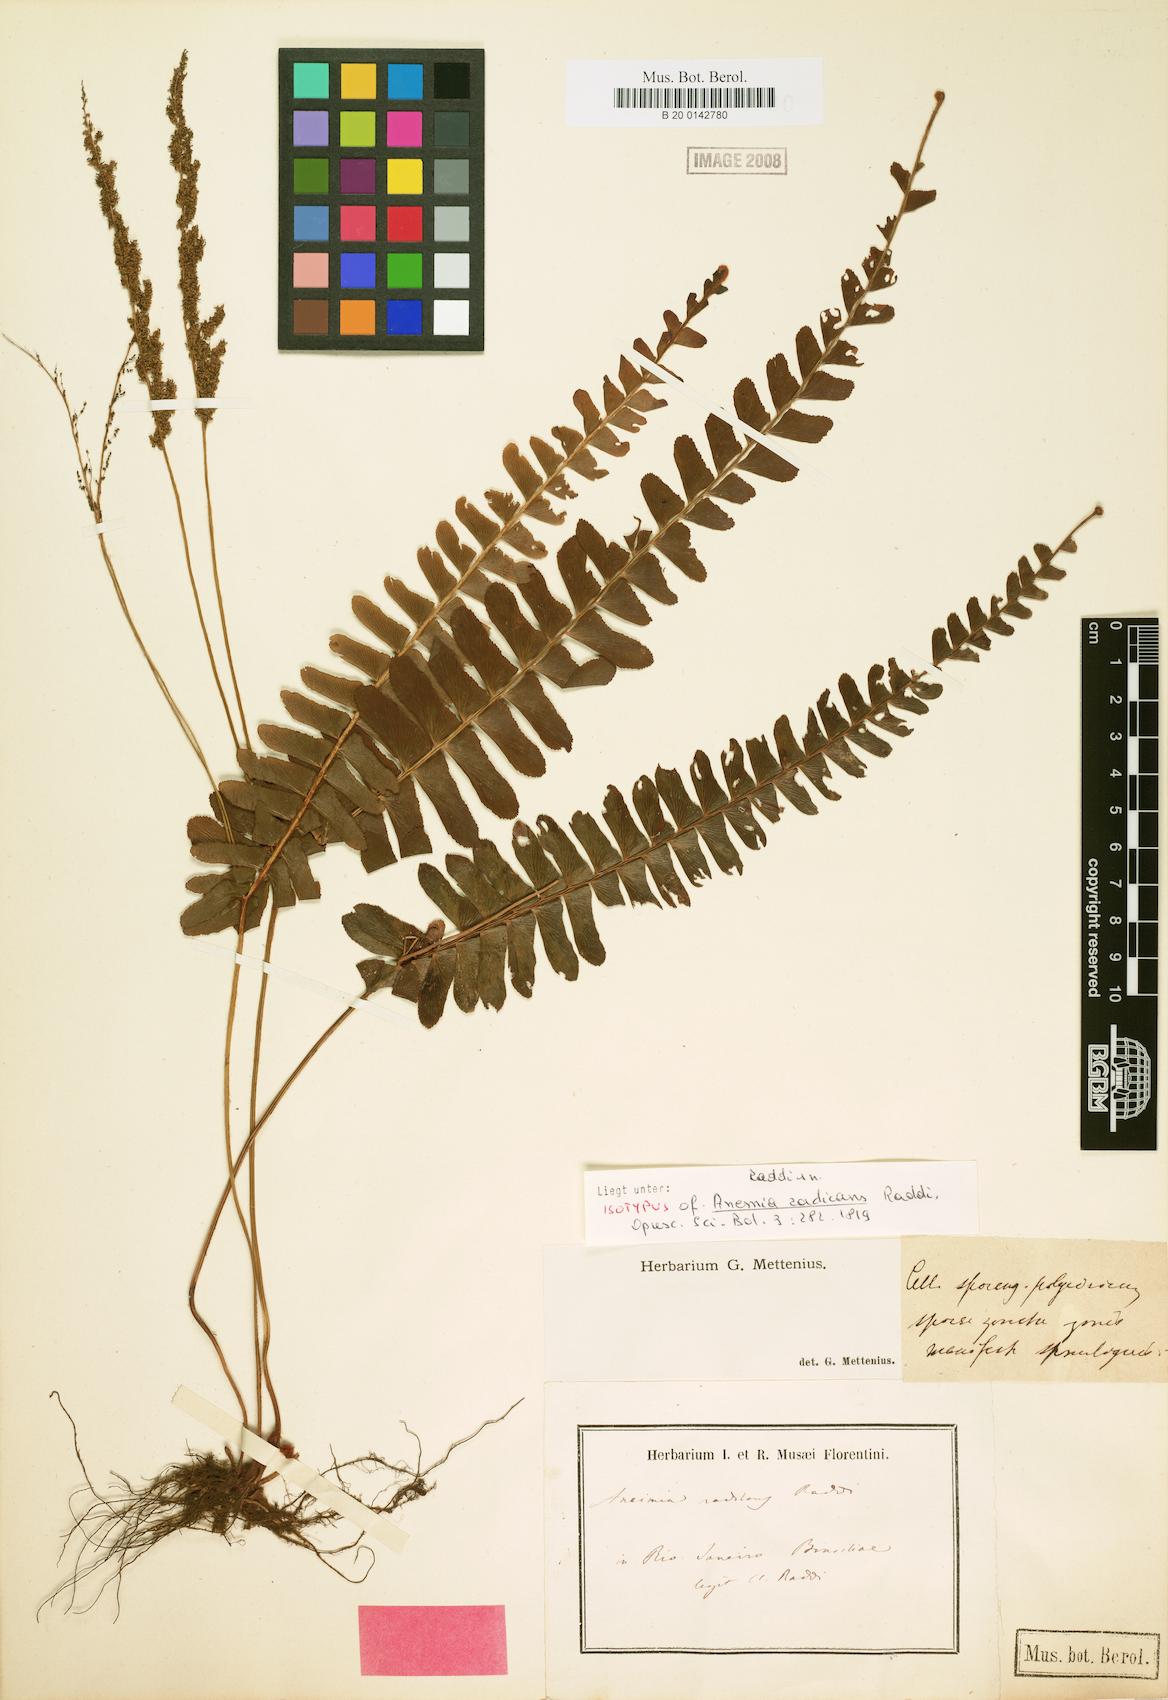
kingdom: Plantae
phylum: Tracheophyta
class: Polypodiopsida
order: Schizaeales
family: Anemiaceae
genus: Anemia
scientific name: Anemia blechnoides
